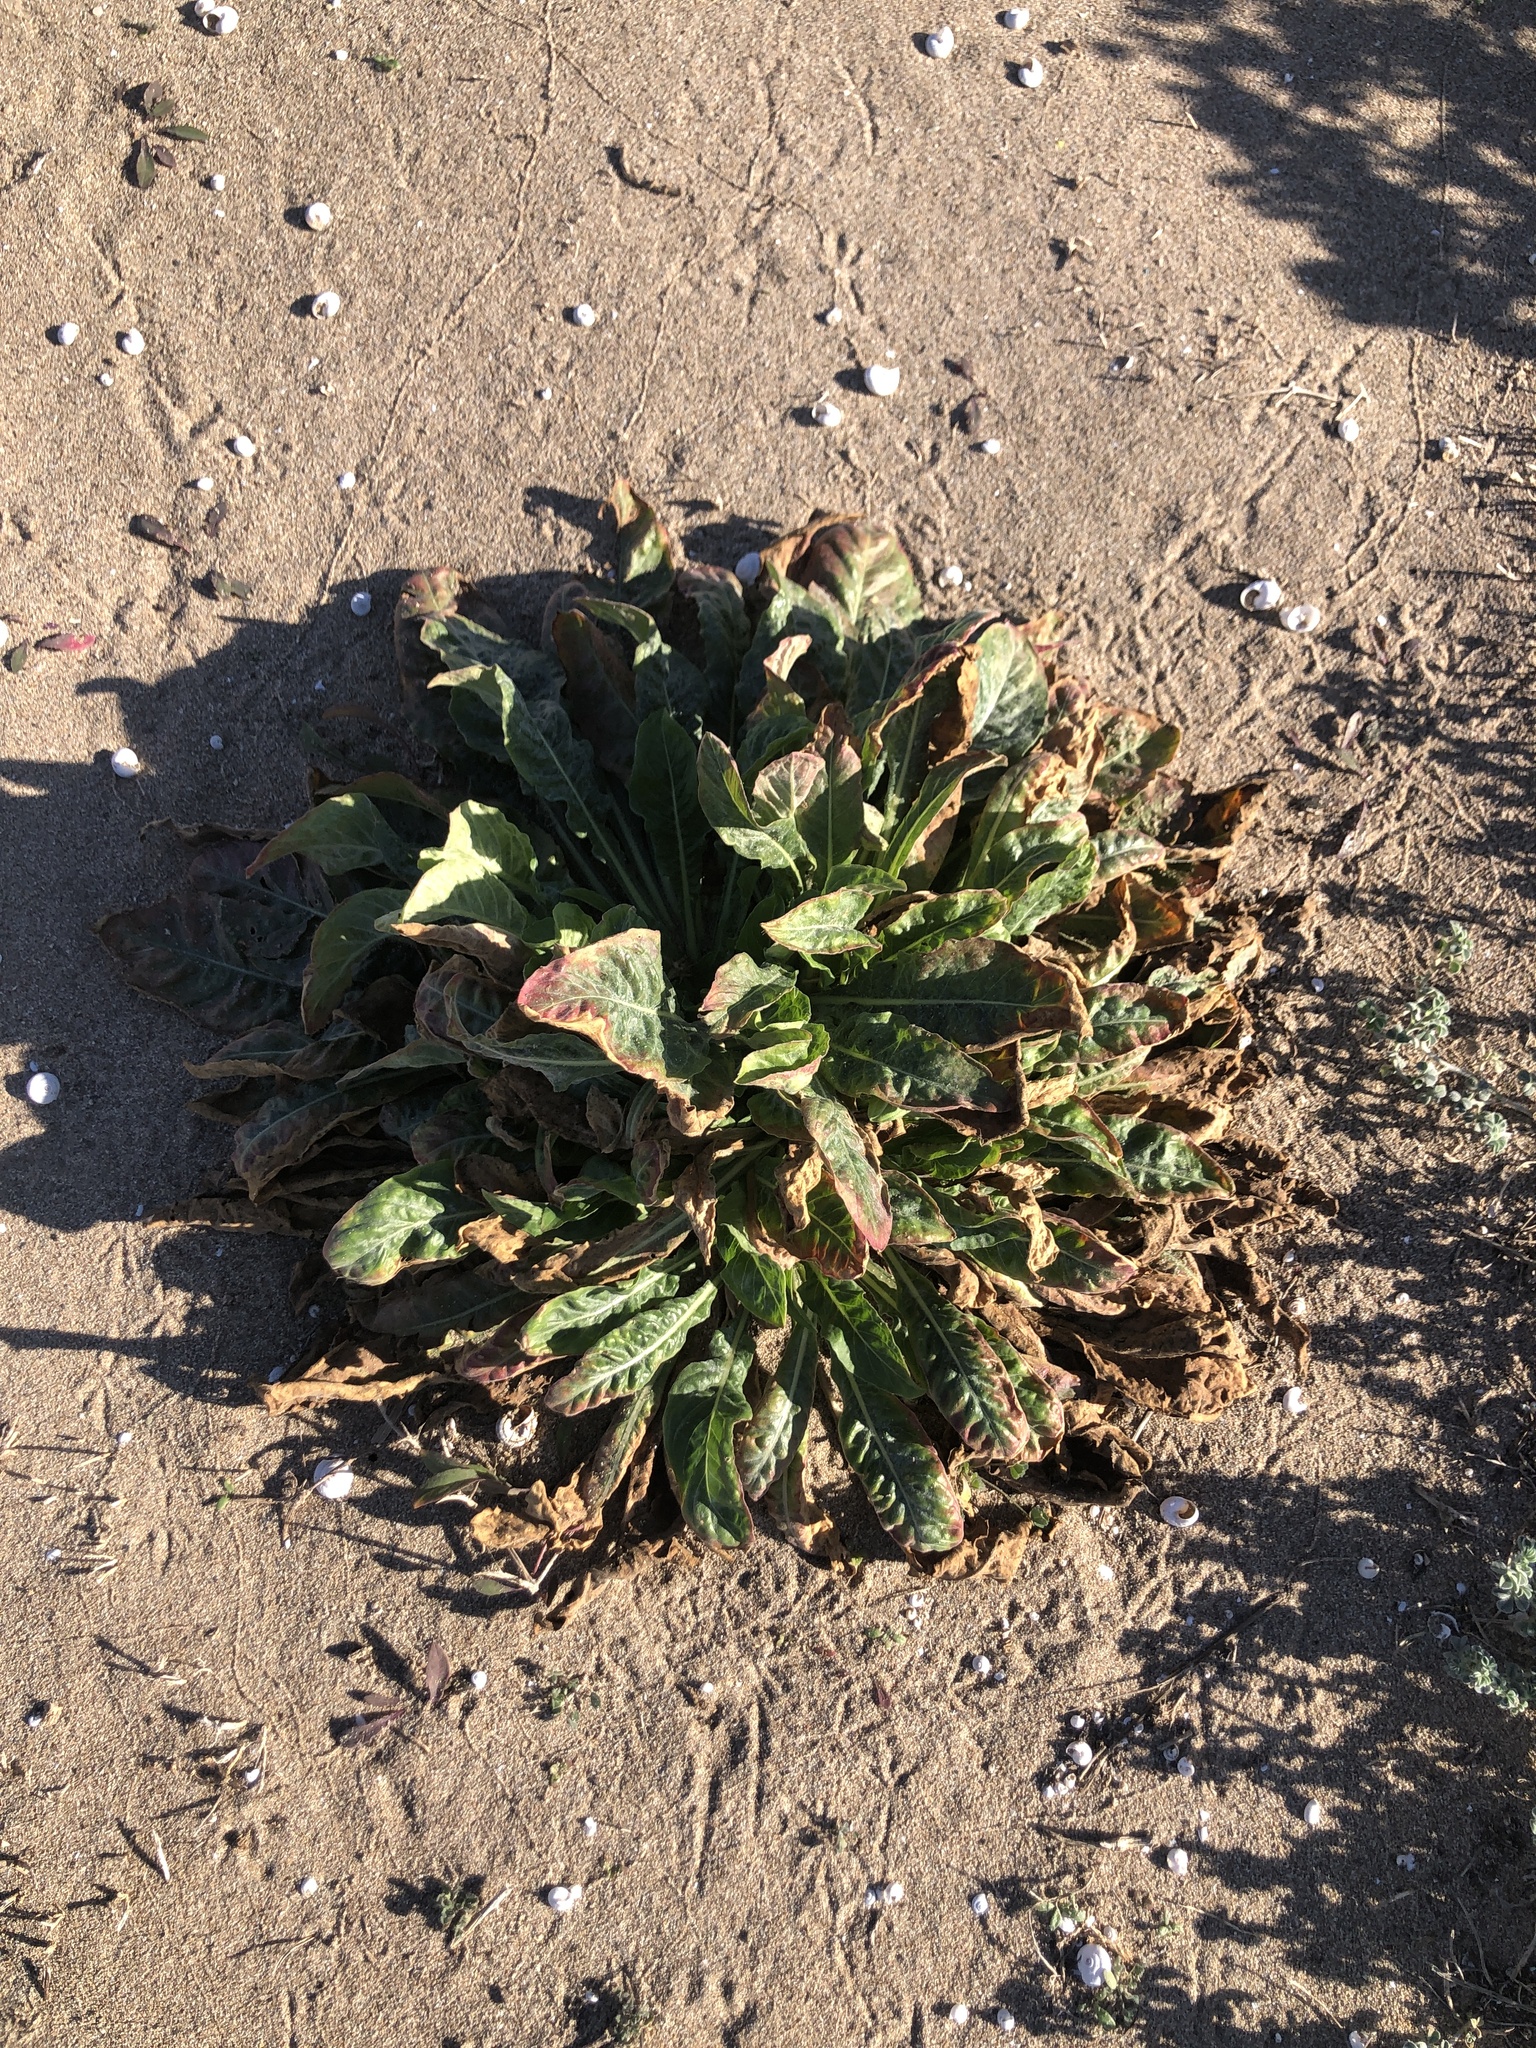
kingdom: Plantae
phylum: Tracheophyta
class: Magnoliopsida
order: Myrtales
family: Onagraceae
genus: Oenothera
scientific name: Oenothera glazioviana
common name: Large-flowered evening-primrose
